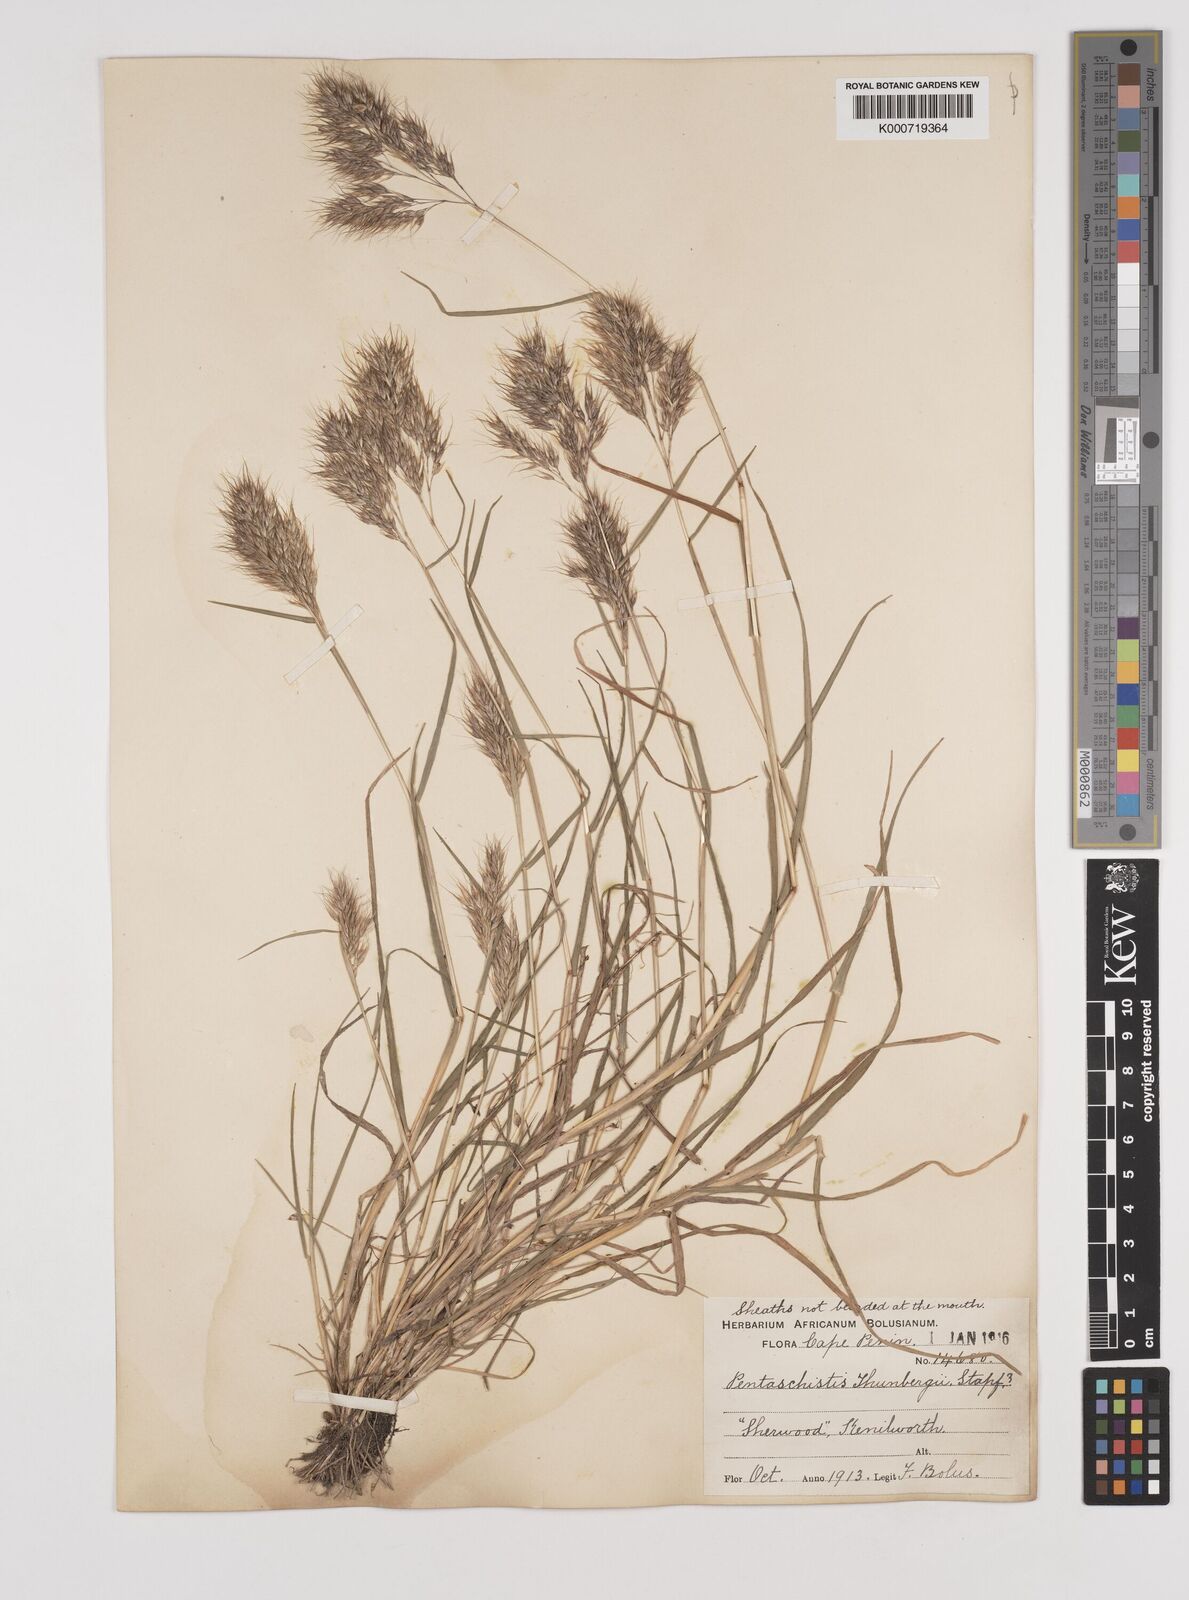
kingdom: Plantae
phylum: Tracheophyta
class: Liliopsida
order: Poales
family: Poaceae
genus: Pentameris
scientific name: Pentameris triseta
